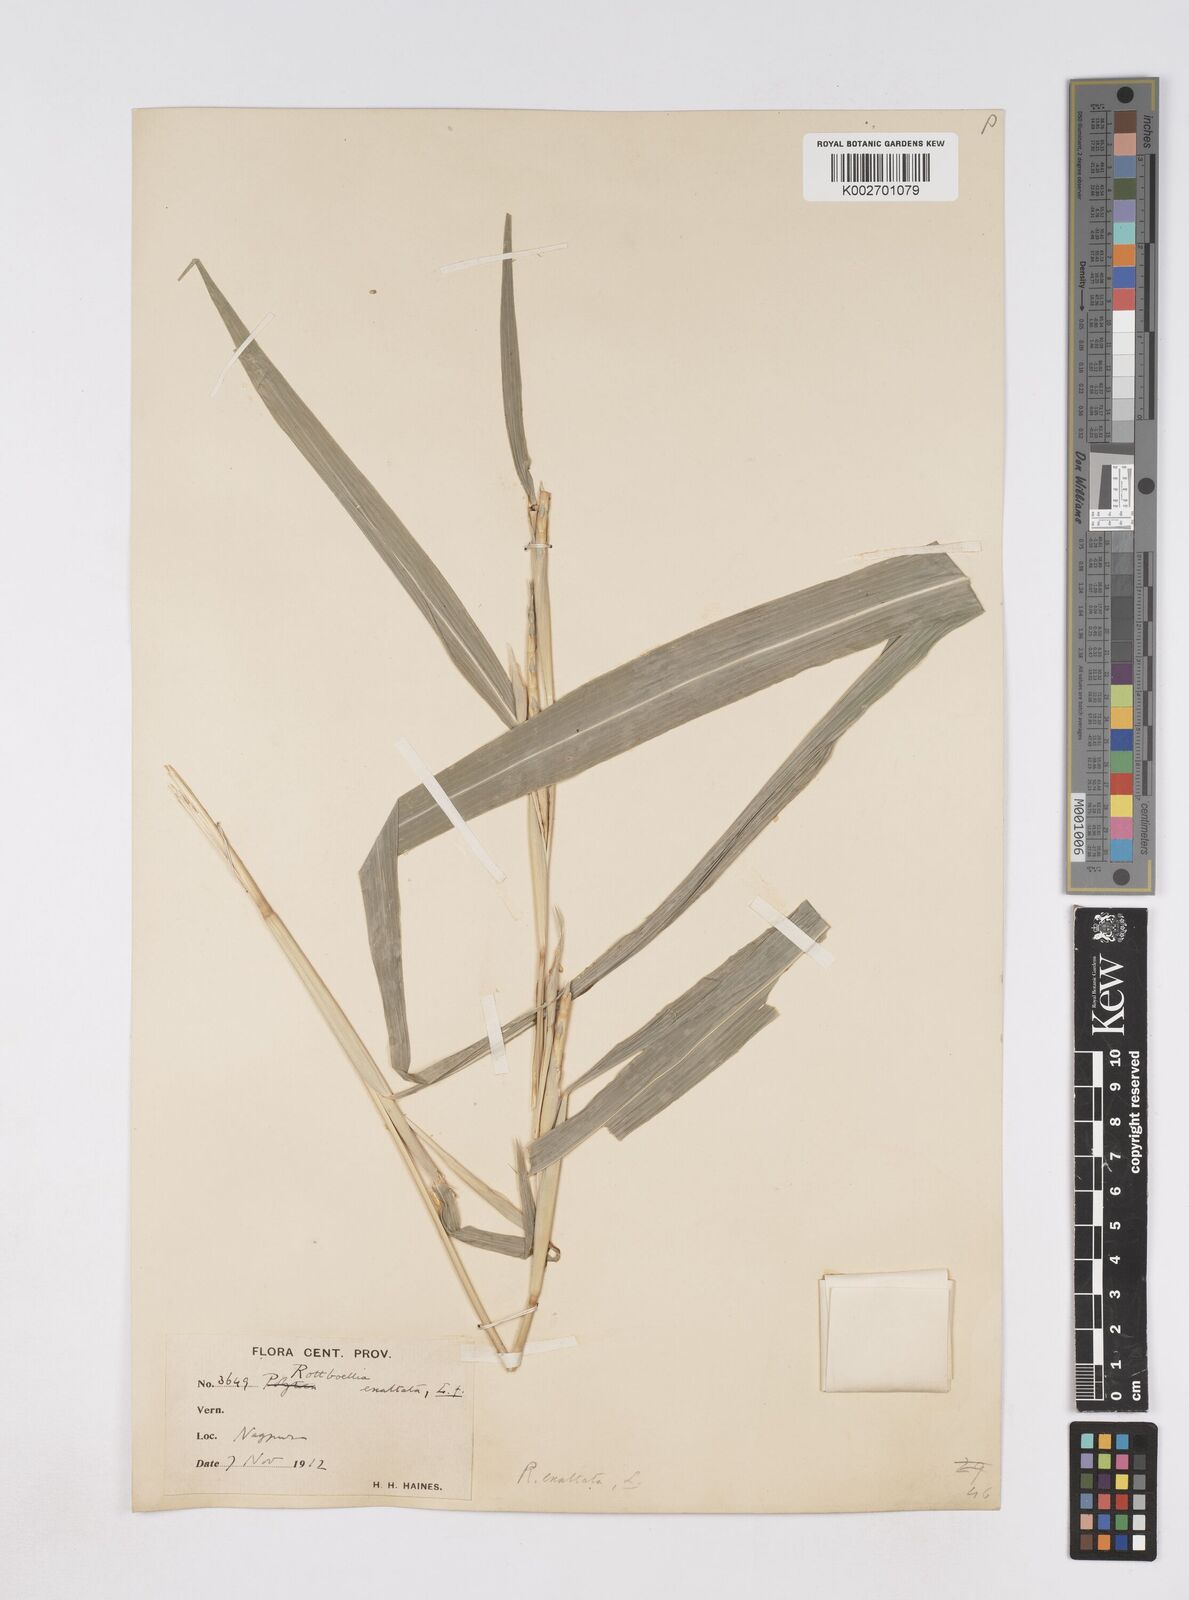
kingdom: Plantae
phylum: Tracheophyta
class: Liliopsida
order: Poales
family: Poaceae
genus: Ophiuros
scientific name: Ophiuros exaltatus
